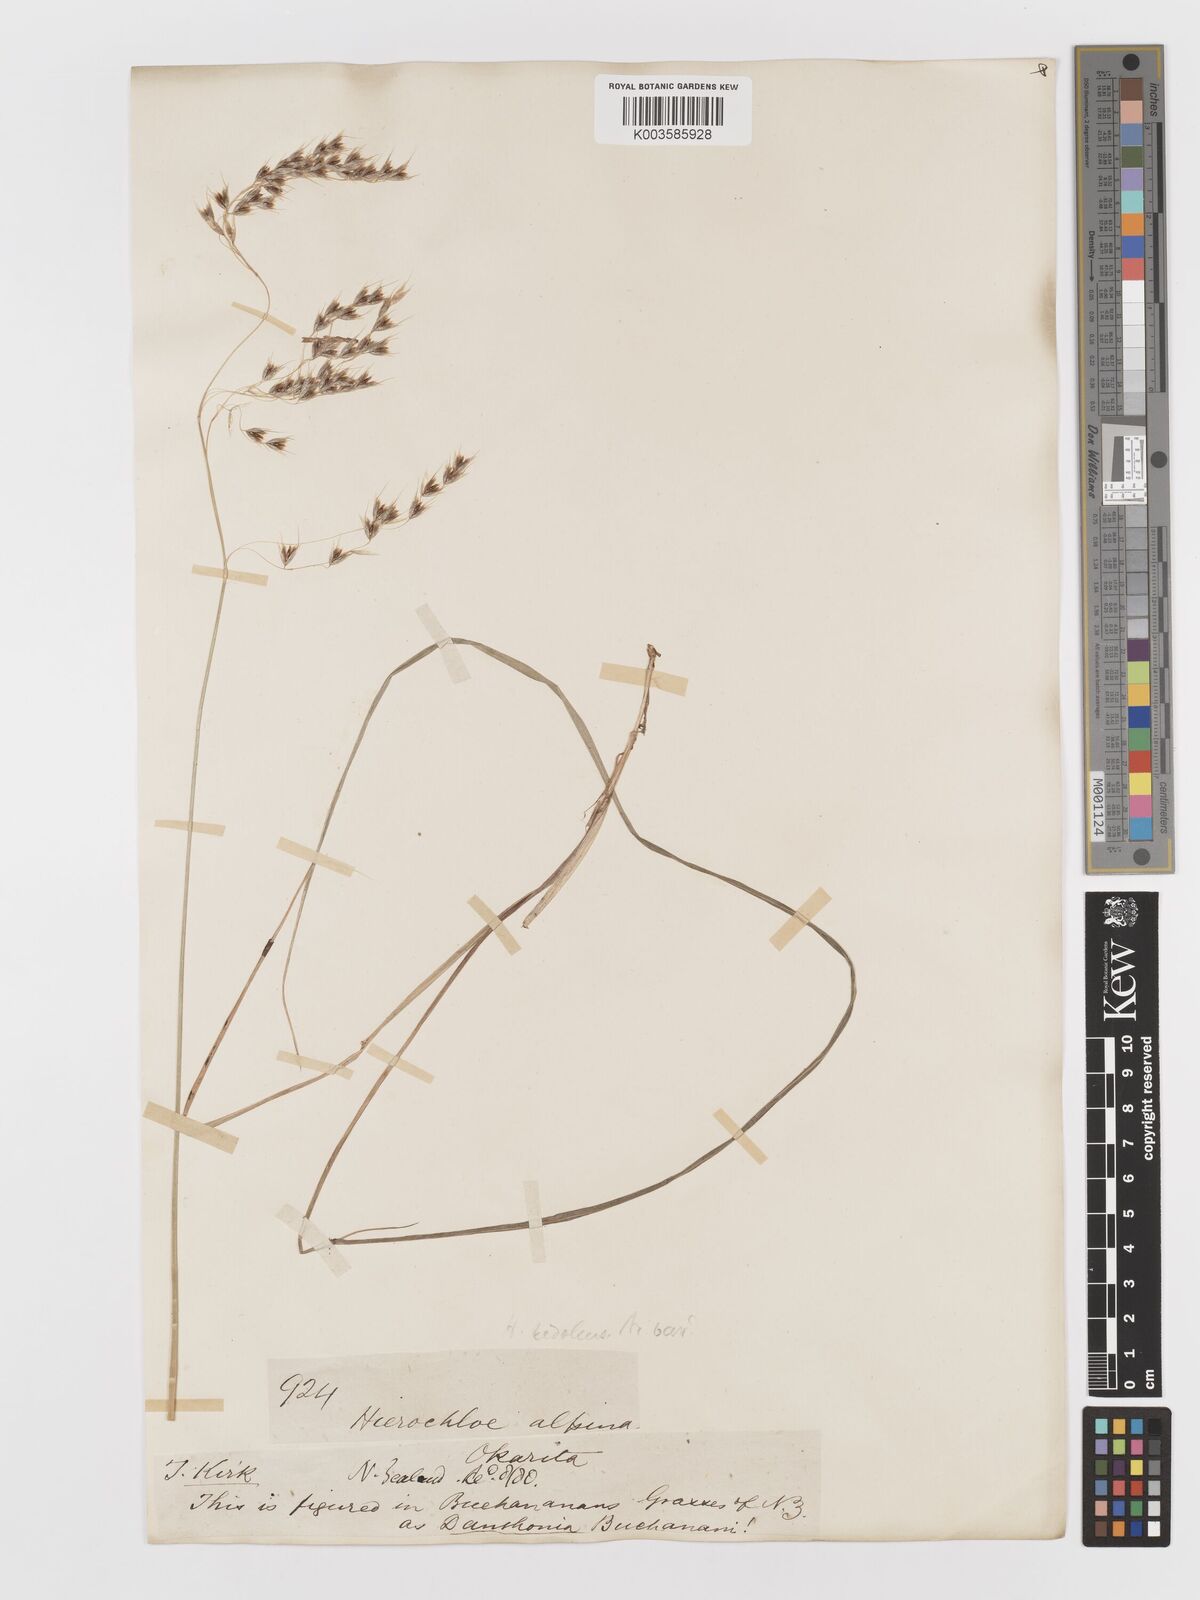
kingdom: Plantae
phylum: Tracheophyta
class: Liliopsida
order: Poales
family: Poaceae
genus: Anthoxanthum
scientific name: Anthoxanthum novae-zelandiae
